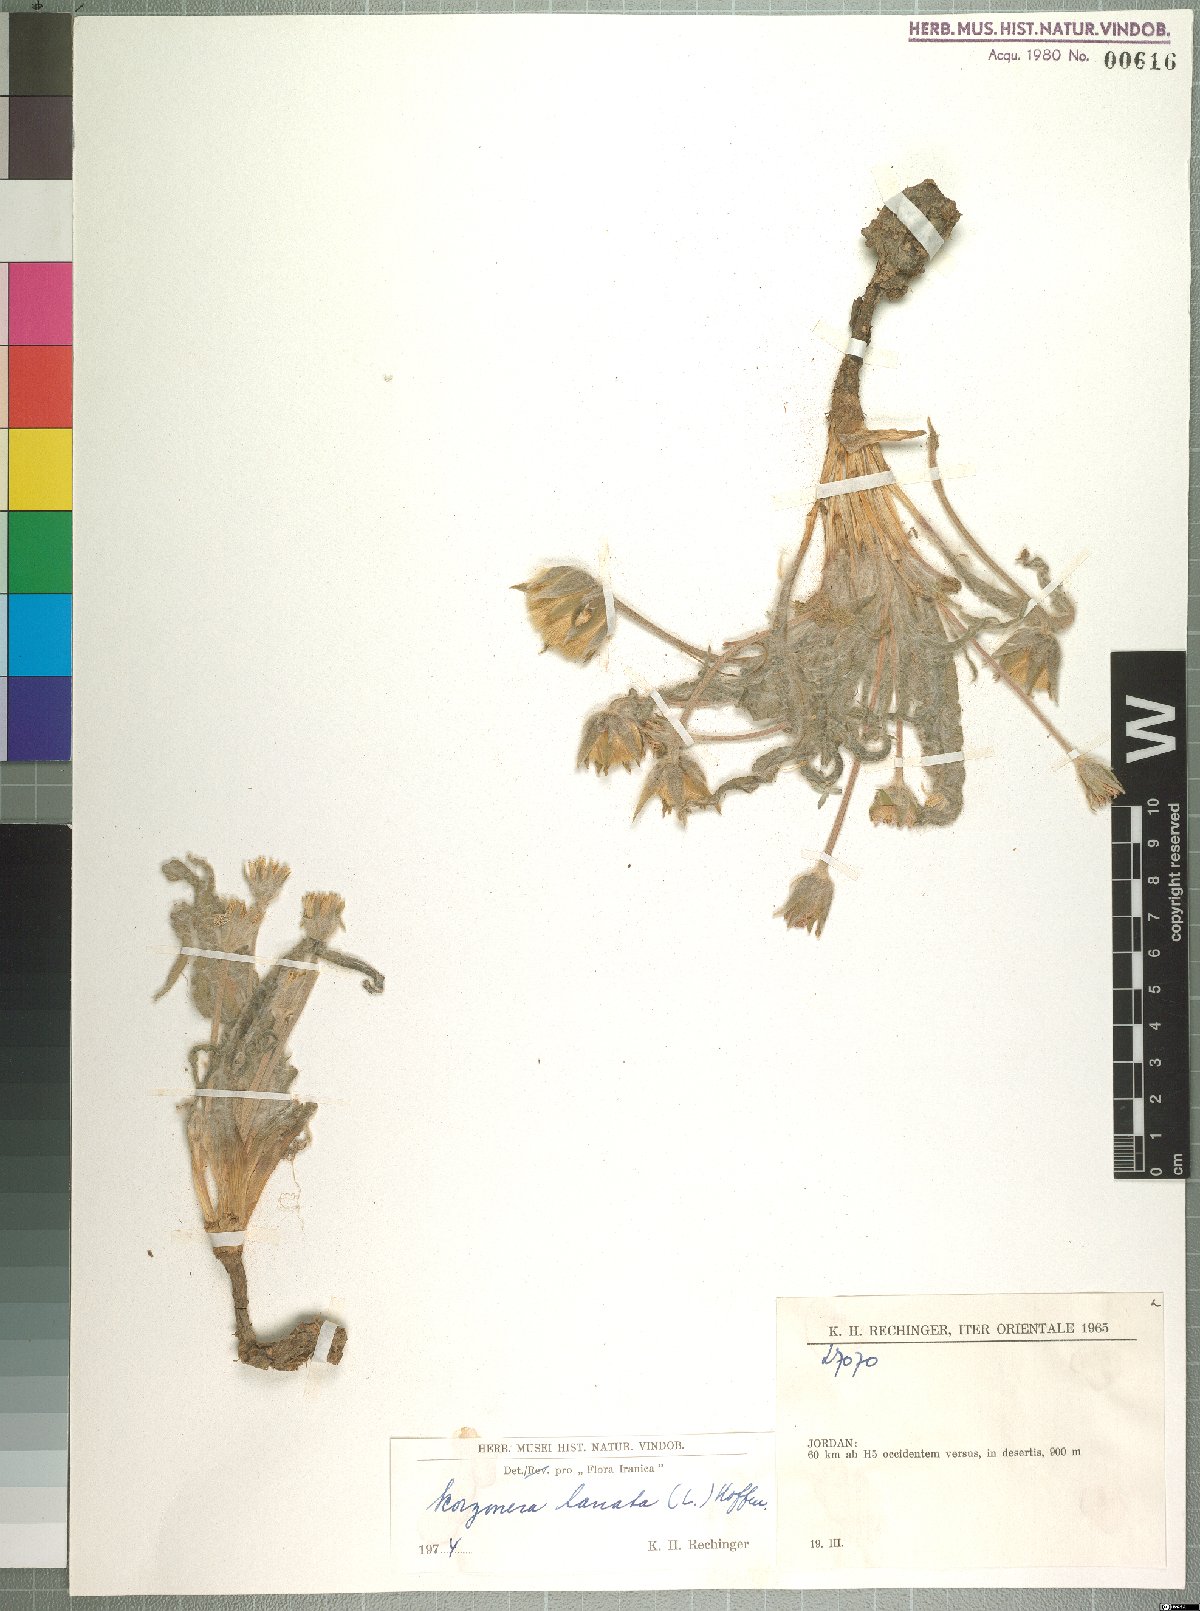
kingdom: Plantae
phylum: Tracheophyta
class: Magnoliopsida
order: Asterales
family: Asteraceae
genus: Bocquetia
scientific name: Bocquetia lanata
